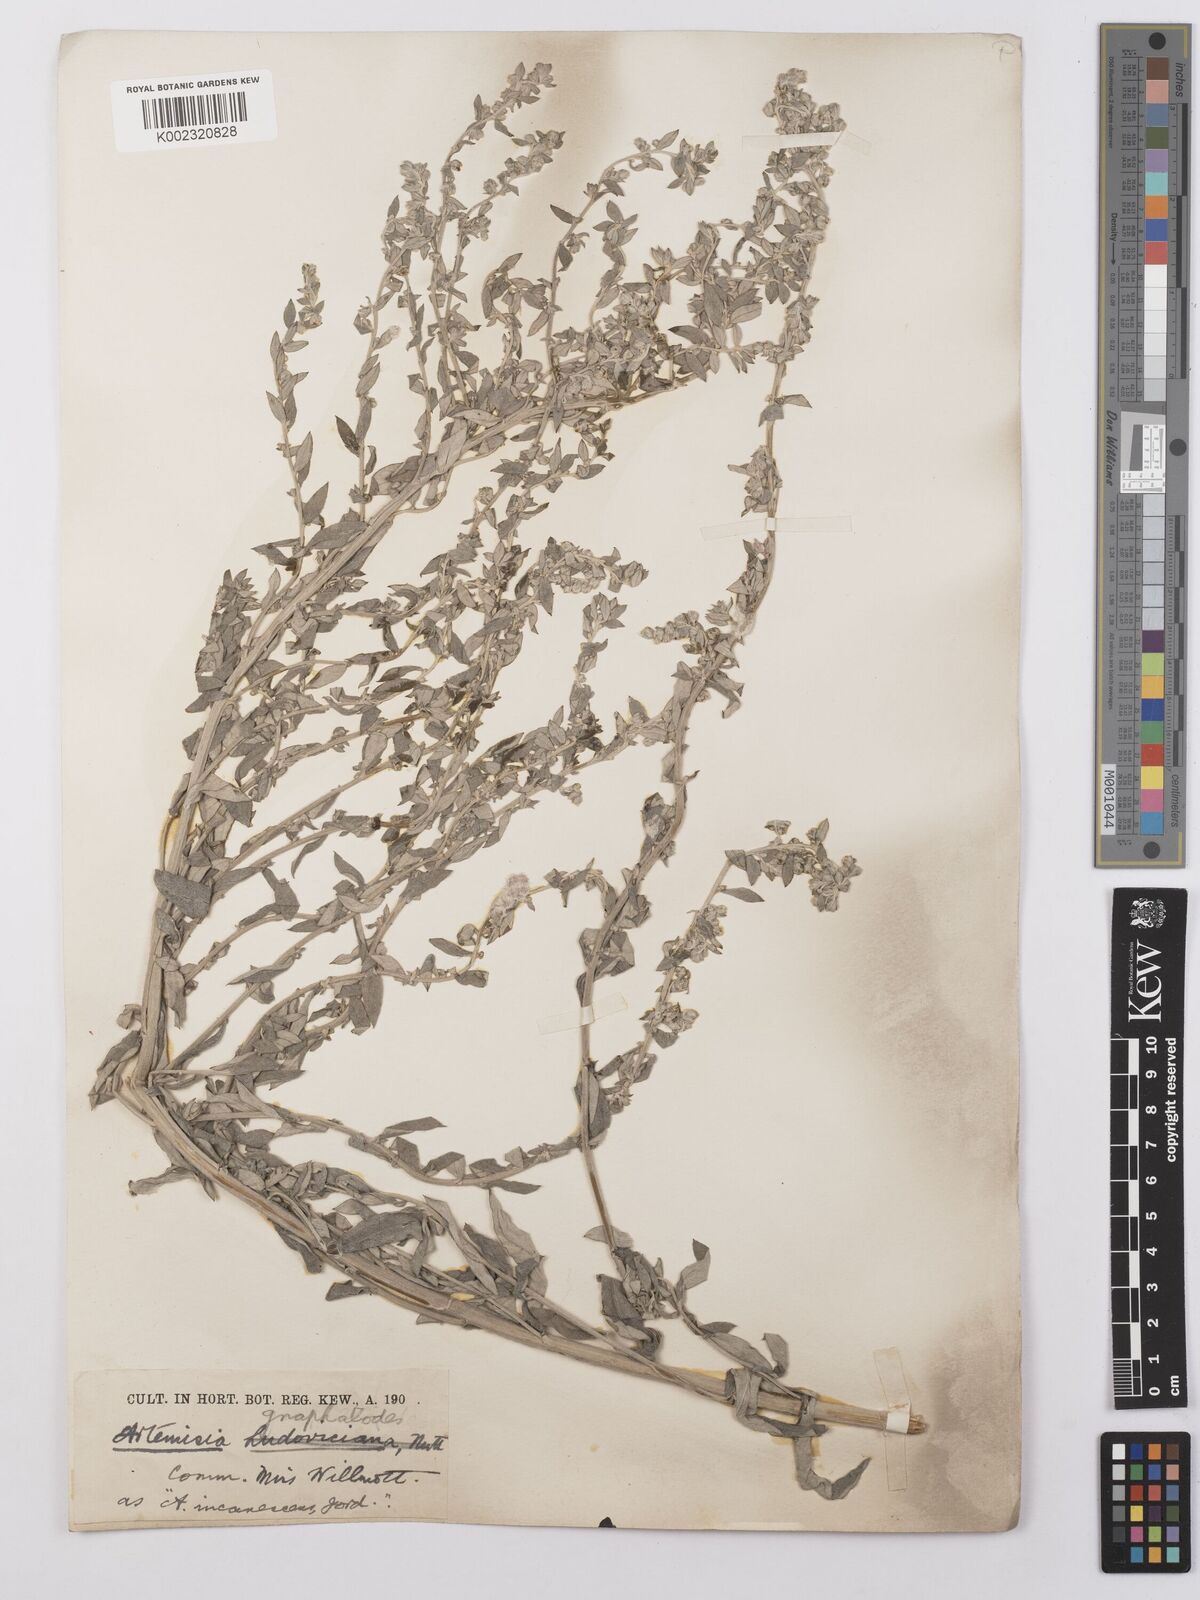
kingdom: Plantae
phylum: Tracheophyta
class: Magnoliopsida
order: Asterales
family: Asteraceae
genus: Artemisia
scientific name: Artemisia ludoviciana
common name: Western mugwort
